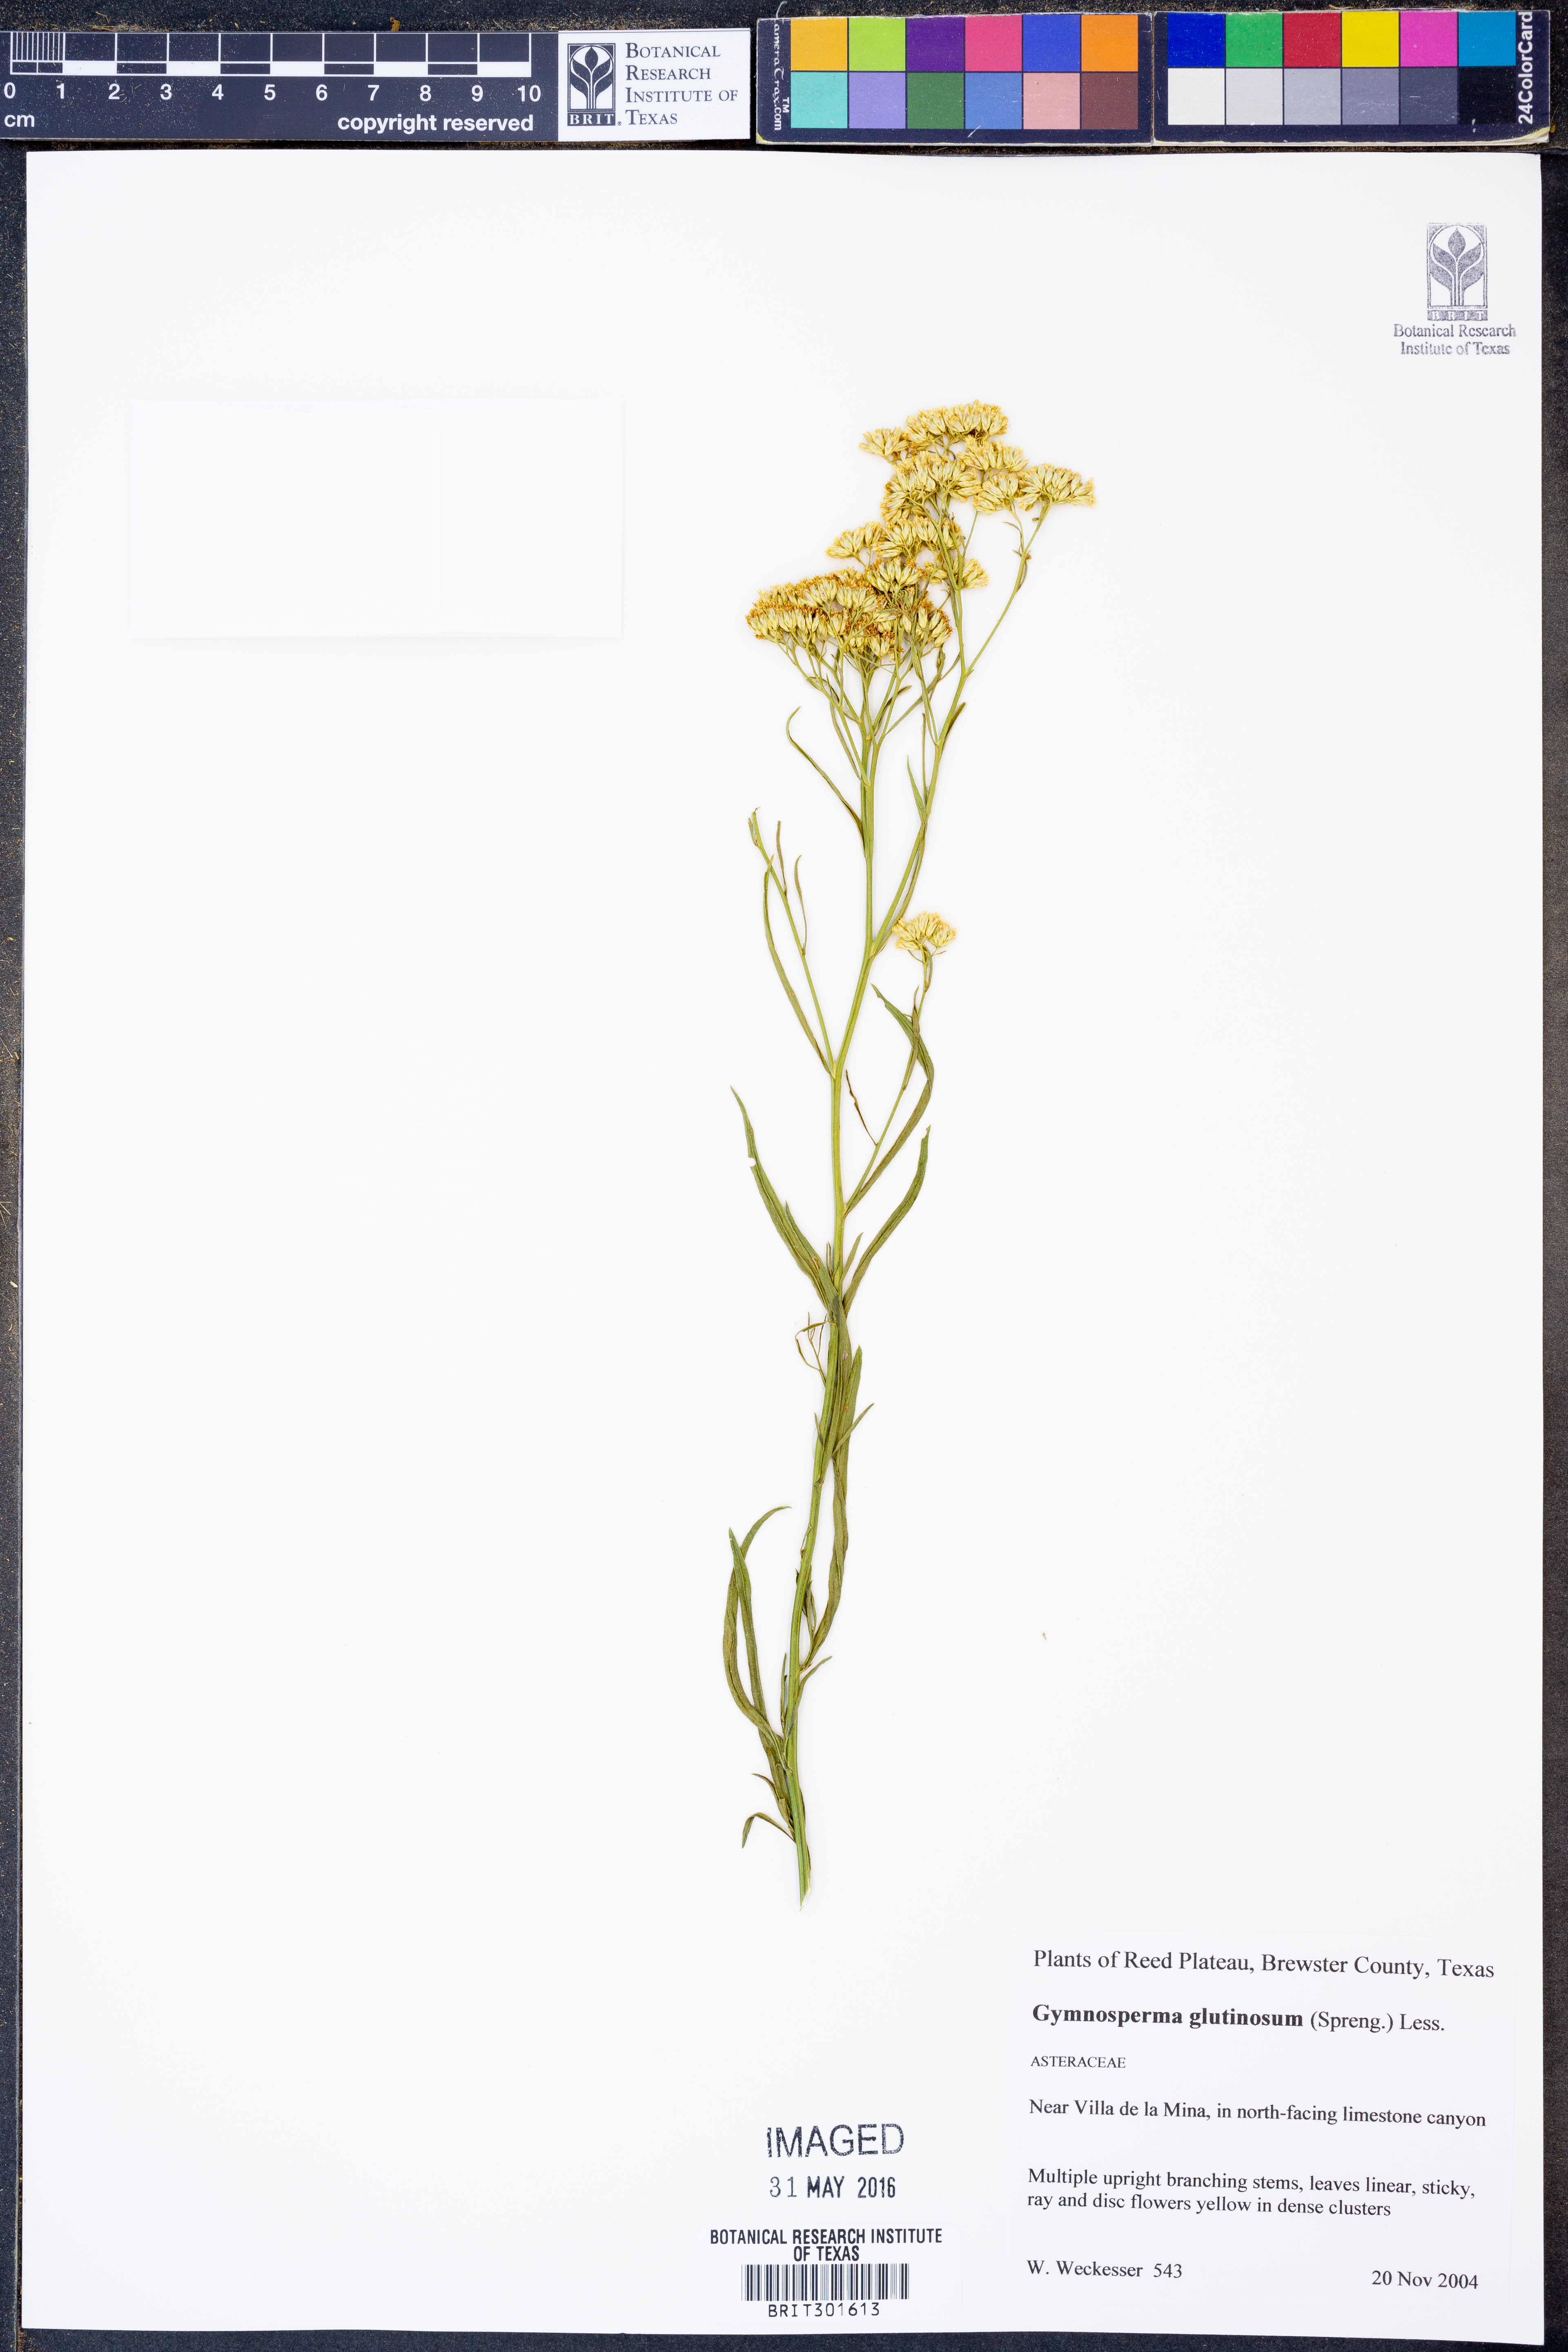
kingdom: Plantae
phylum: Tracheophyta
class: Magnoliopsida
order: Asterales
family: Asteraceae
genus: Gymnosperma
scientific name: Gymnosperma glutinosum
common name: Gumhead
